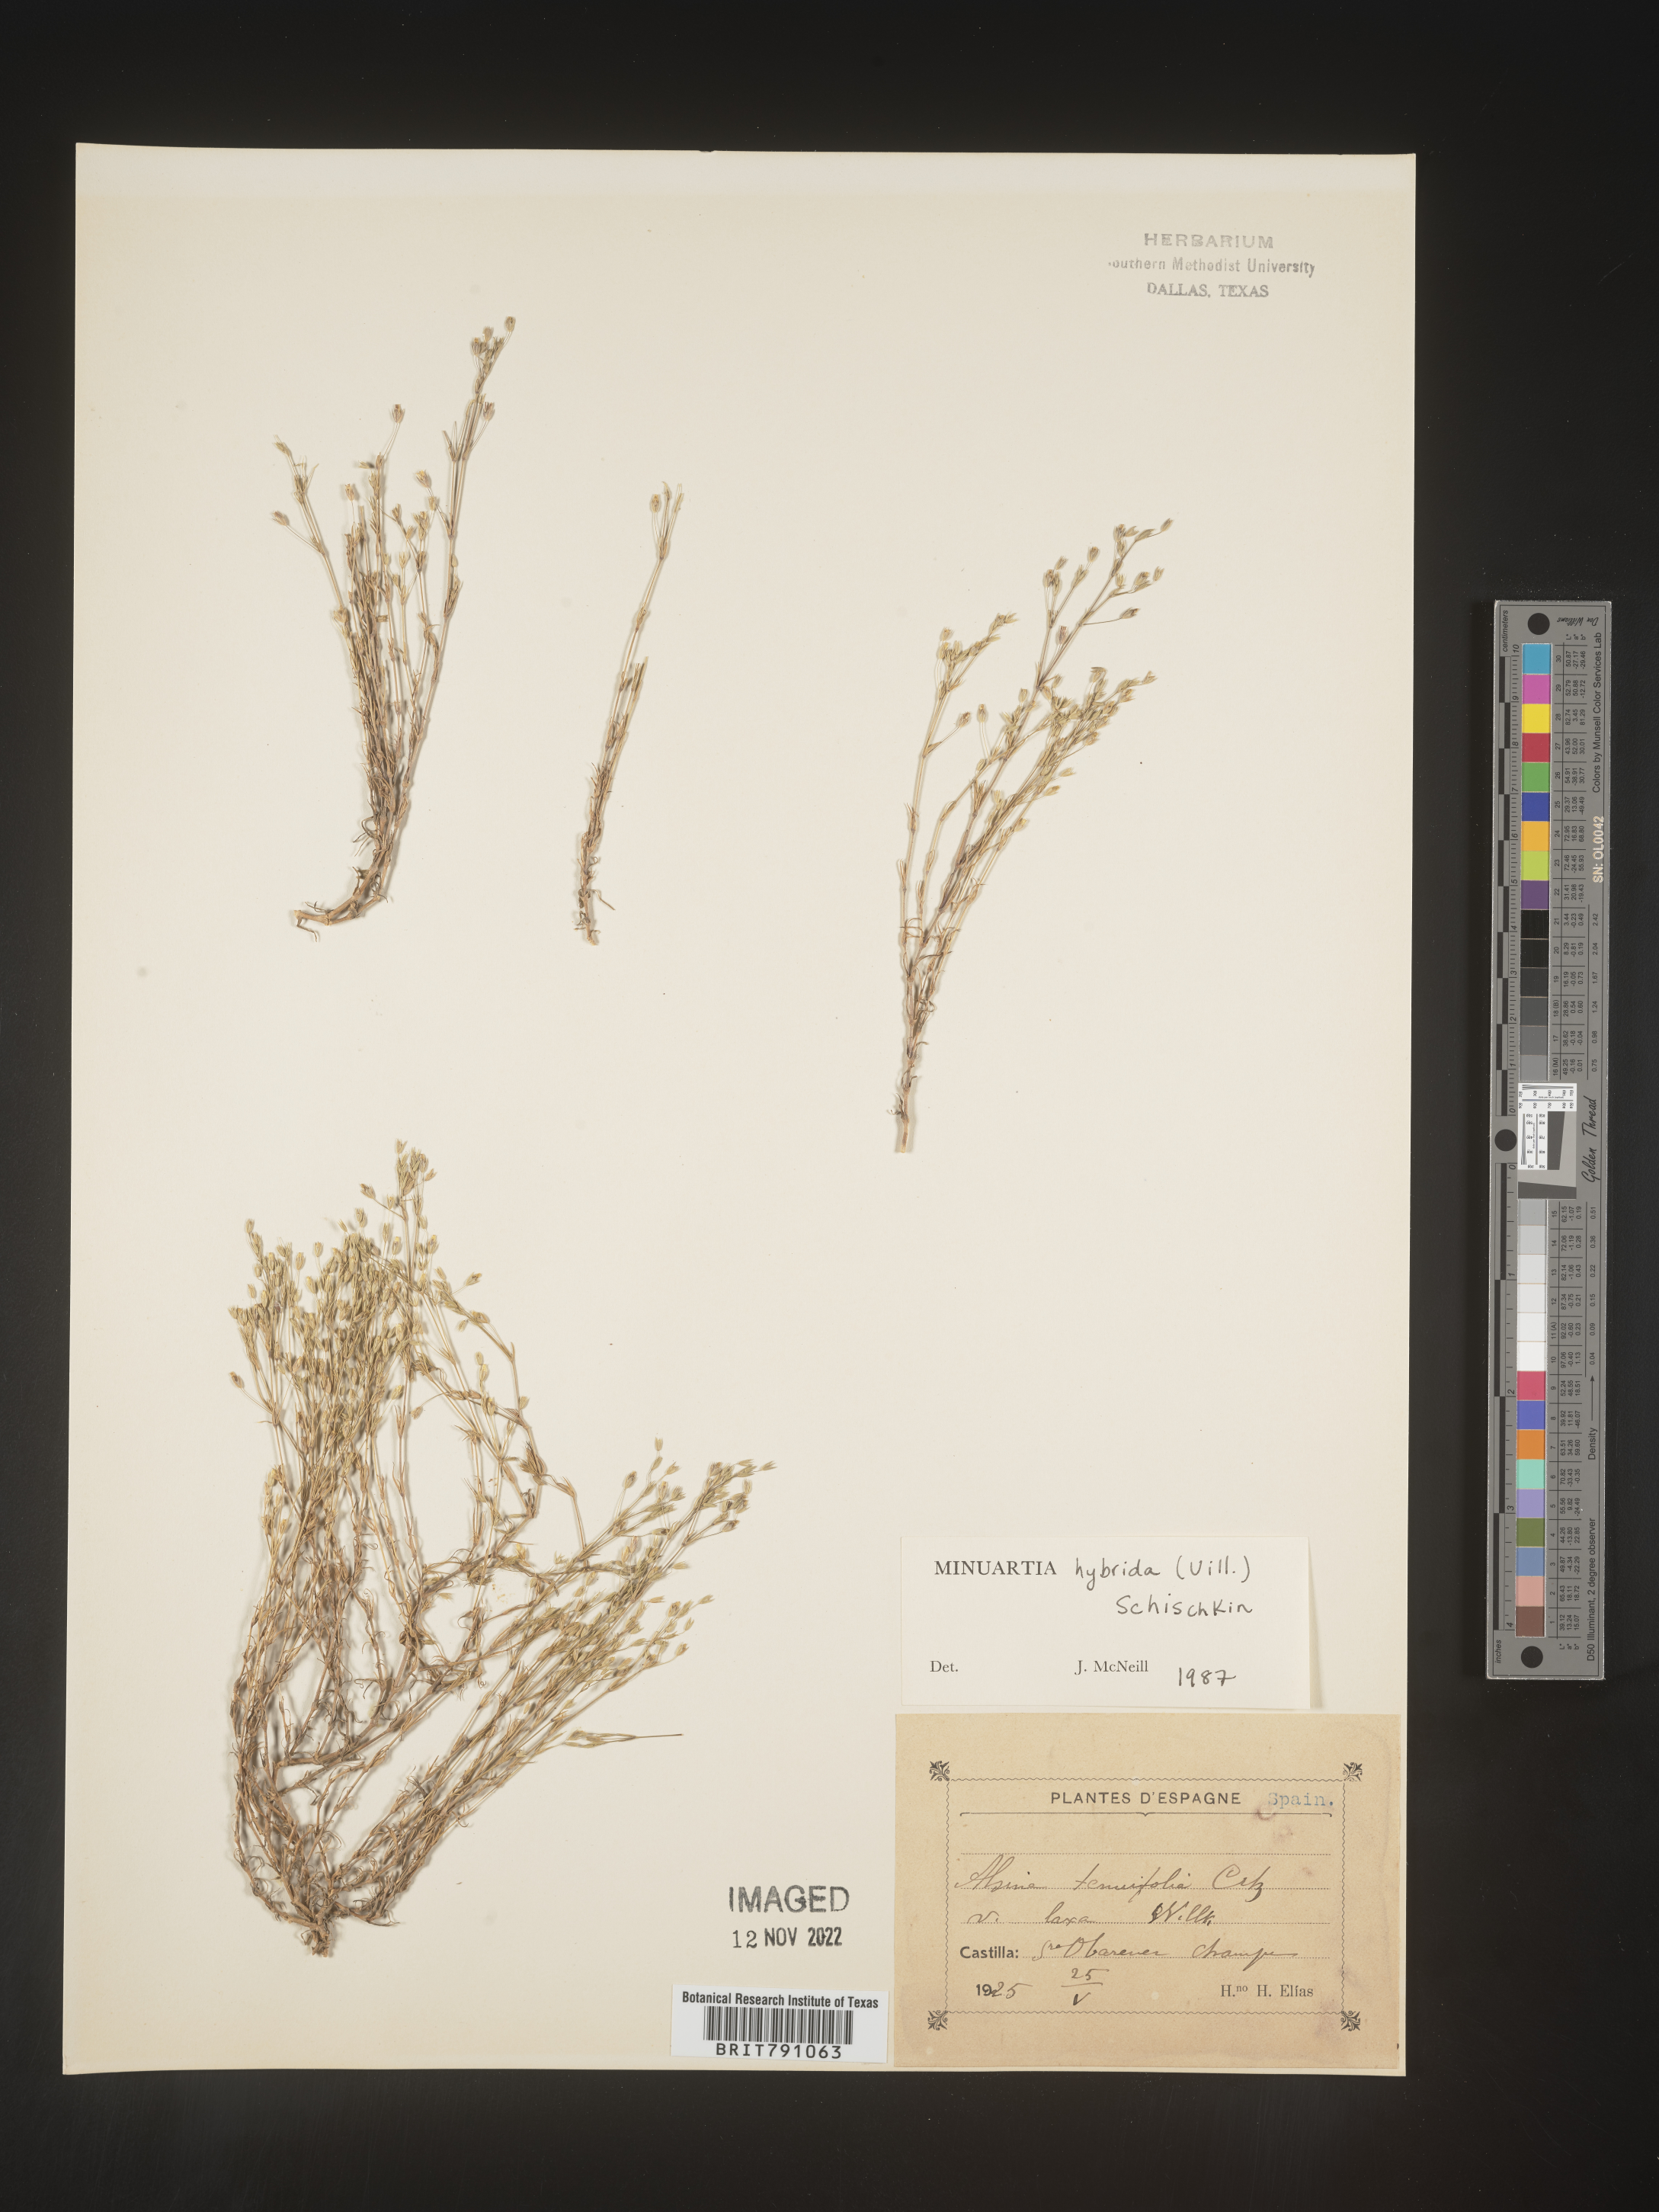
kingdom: Plantae
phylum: Tracheophyta
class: Magnoliopsida
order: Caryophyllales
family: Caryophyllaceae
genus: Minuartia
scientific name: Minuartia
